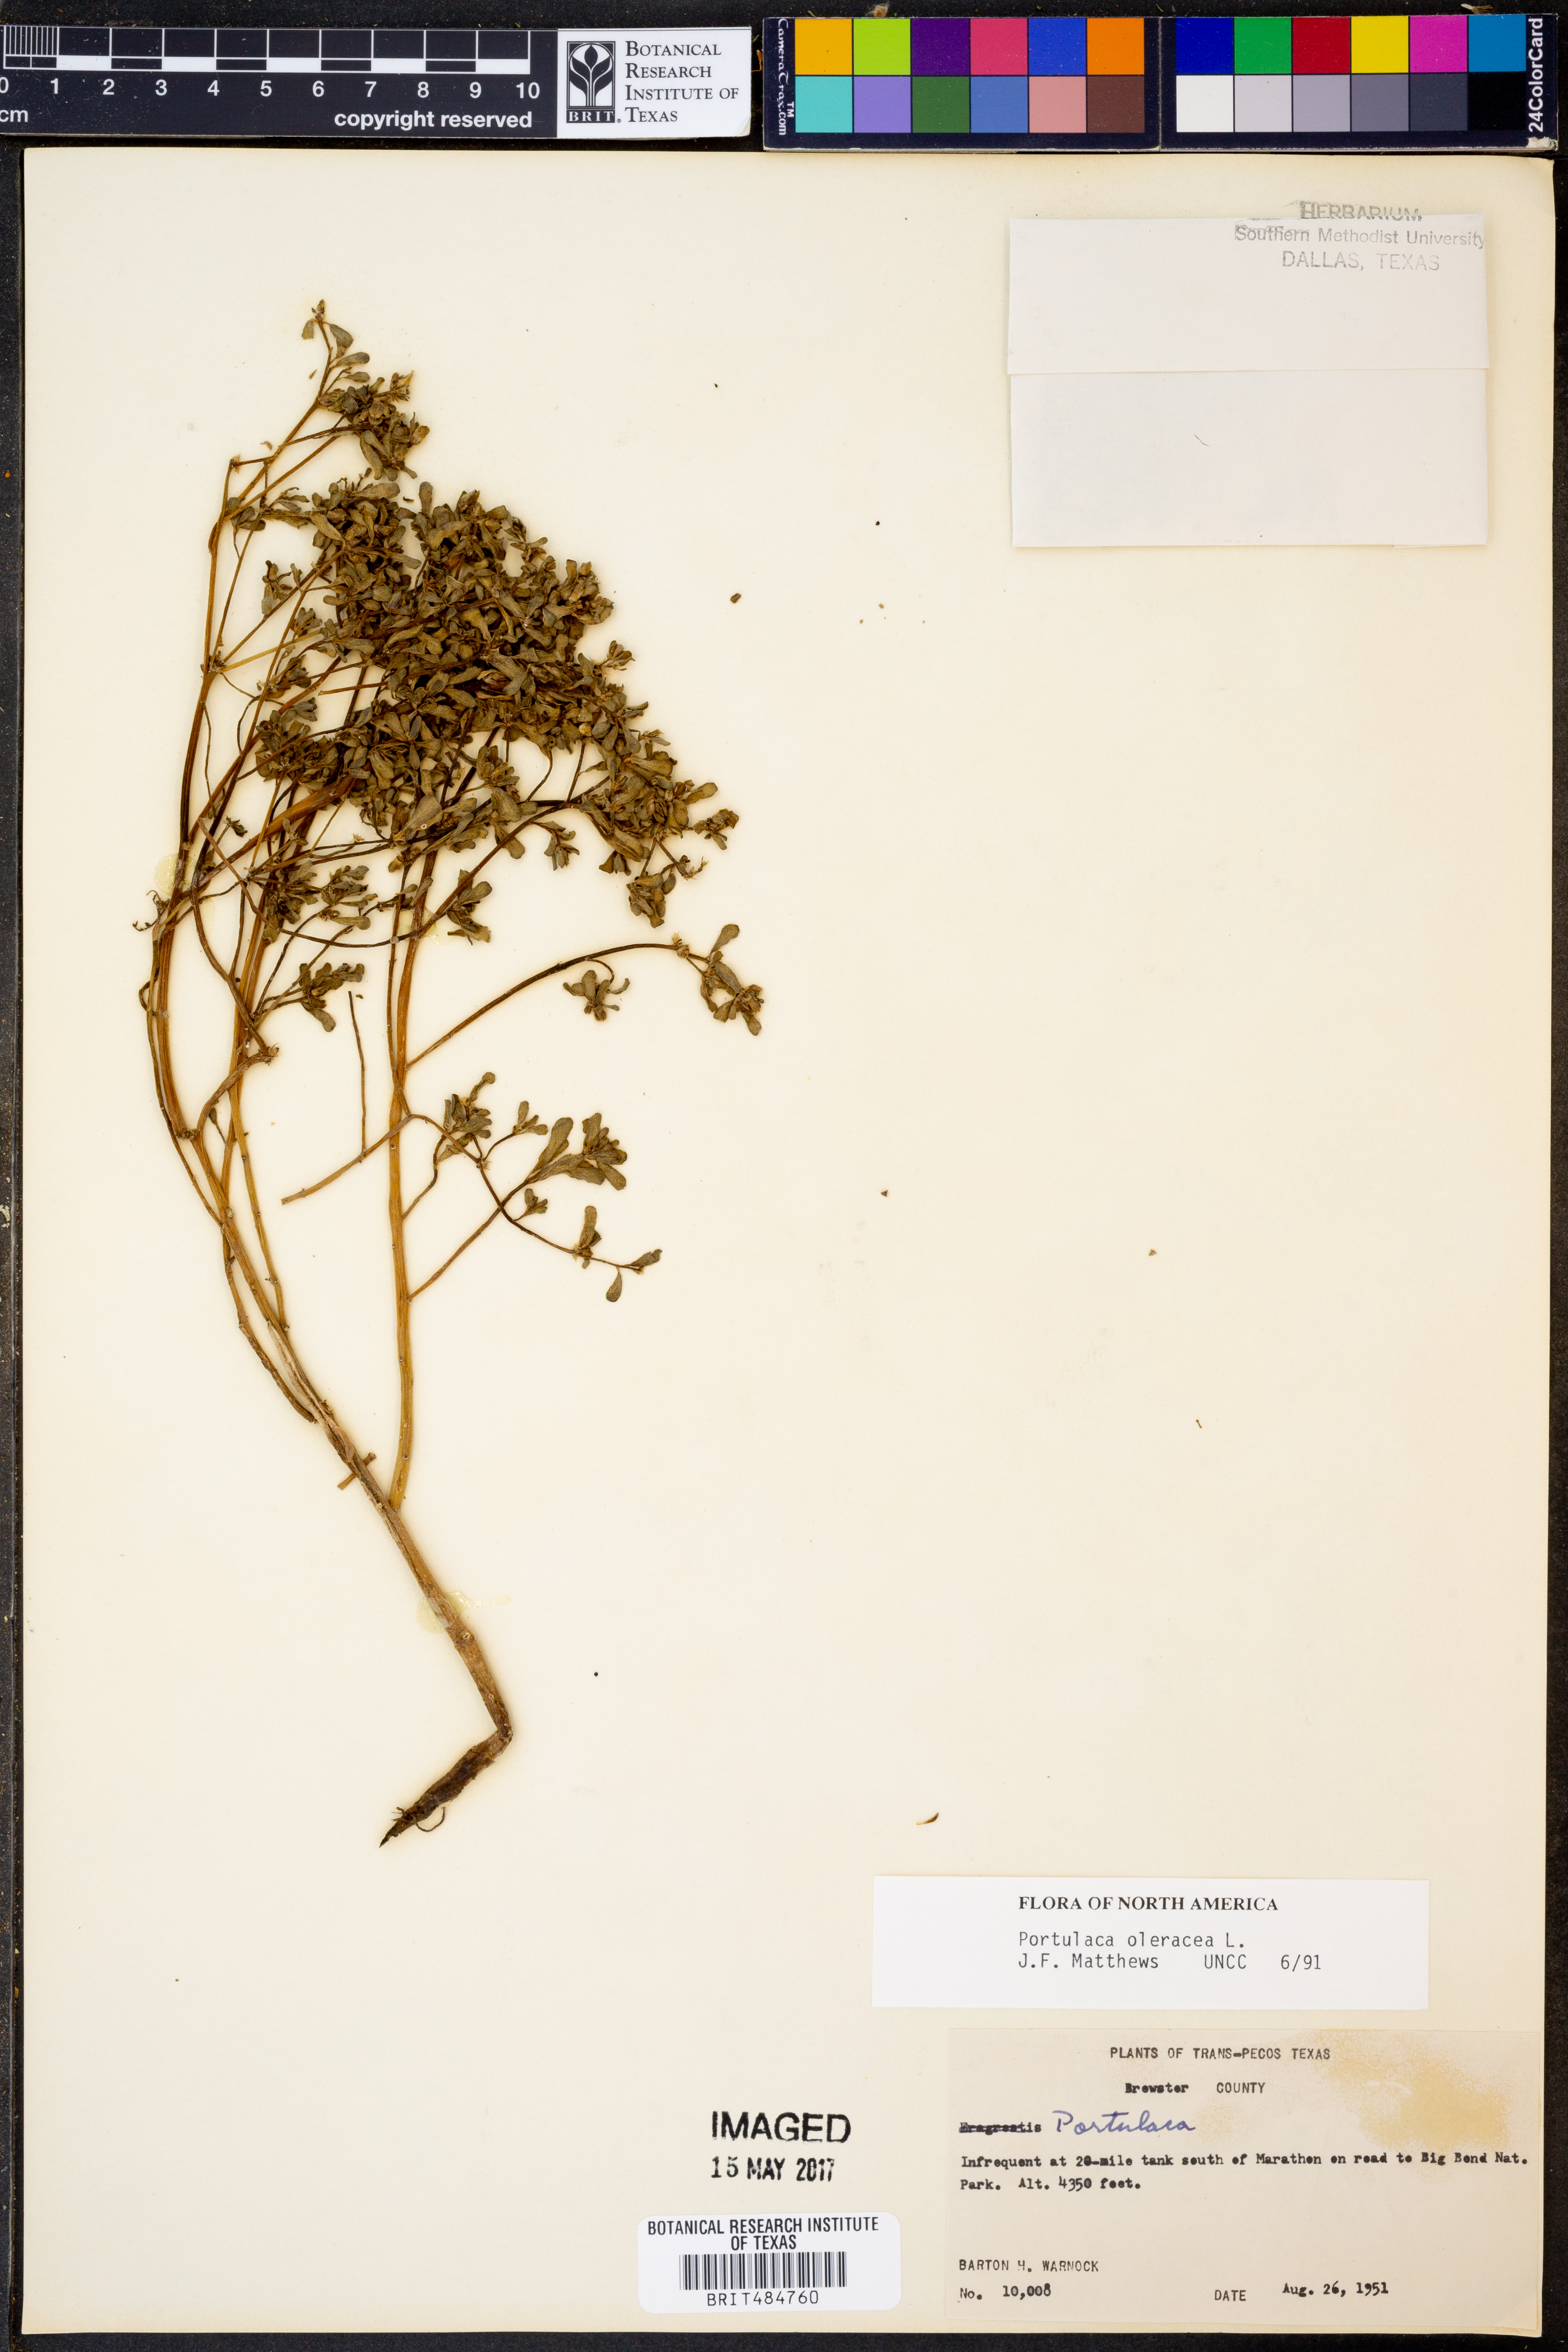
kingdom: Plantae
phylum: Tracheophyta
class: Magnoliopsida
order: Caryophyllales
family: Portulacaceae
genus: Portulaca
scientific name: Portulaca oleracea
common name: Common purslane
